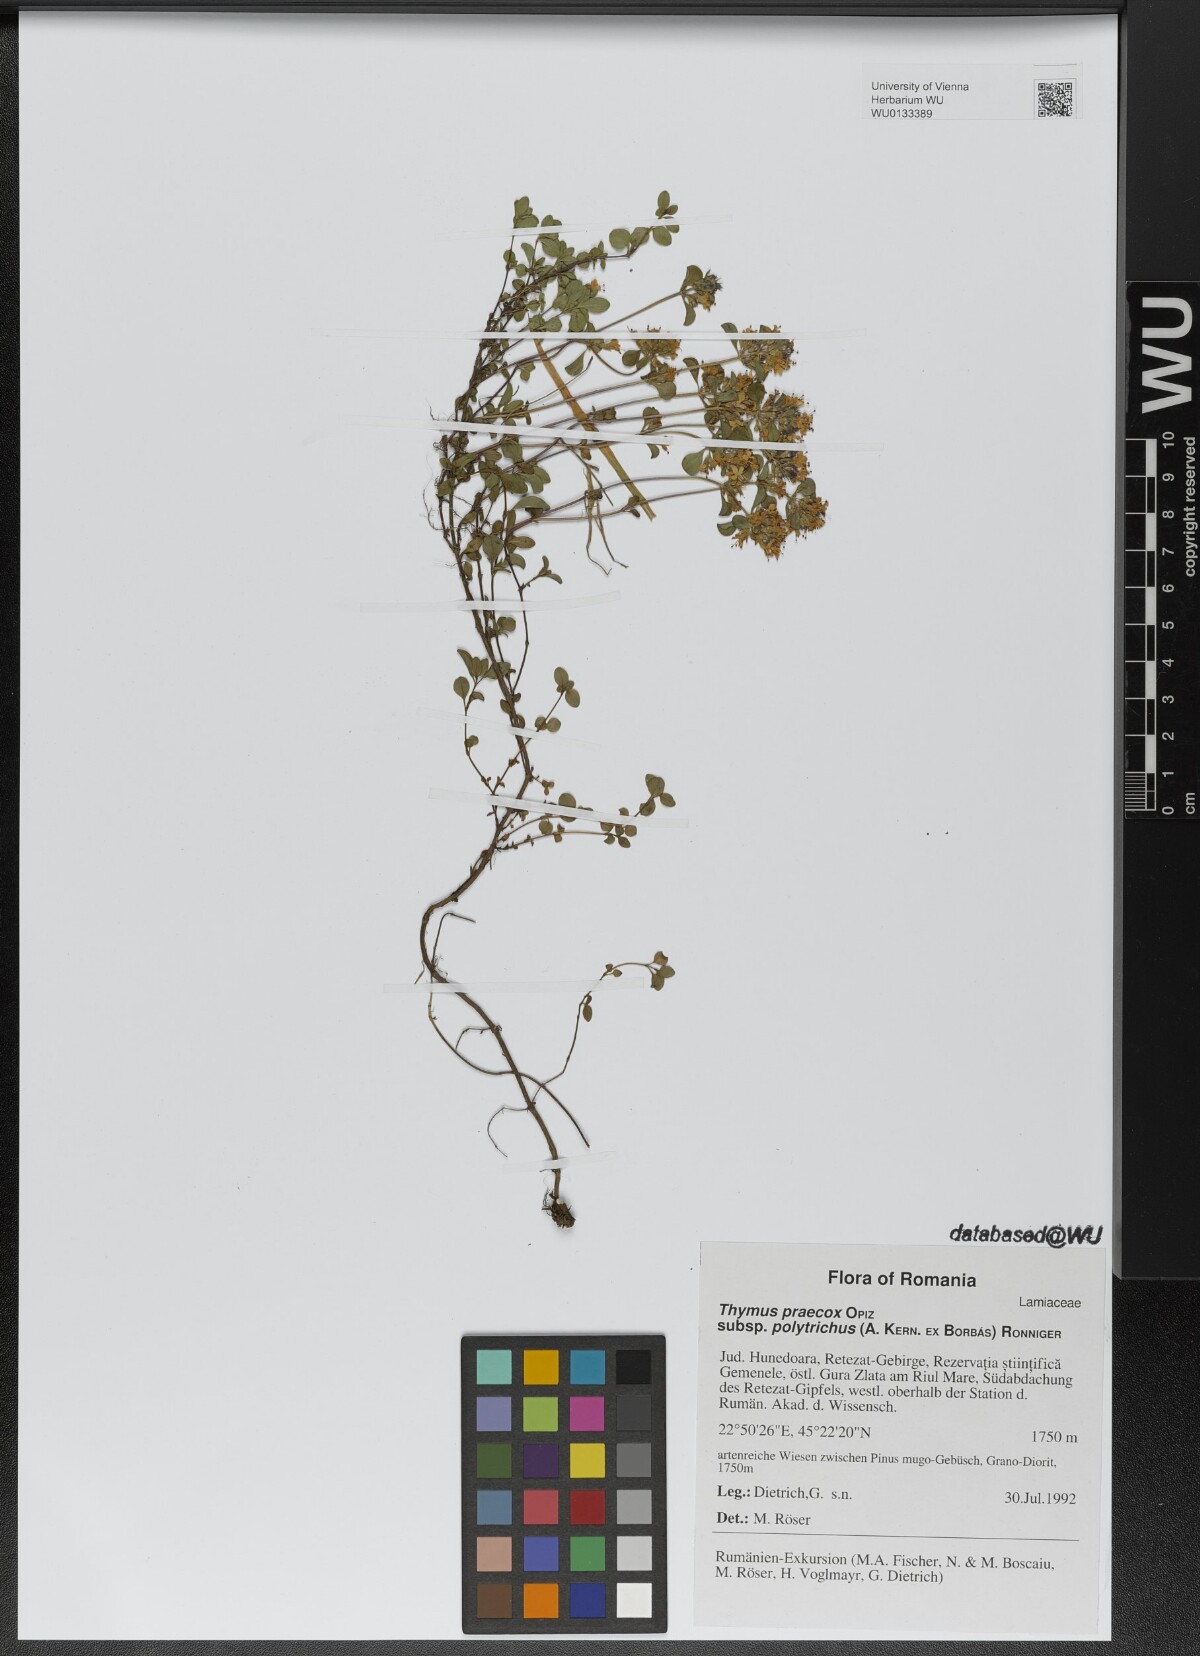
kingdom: Plantae
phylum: Tracheophyta
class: Magnoliopsida
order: Lamiales
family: Lamiaceae
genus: Thymus
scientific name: Thymus praecox
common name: Wild thyme
